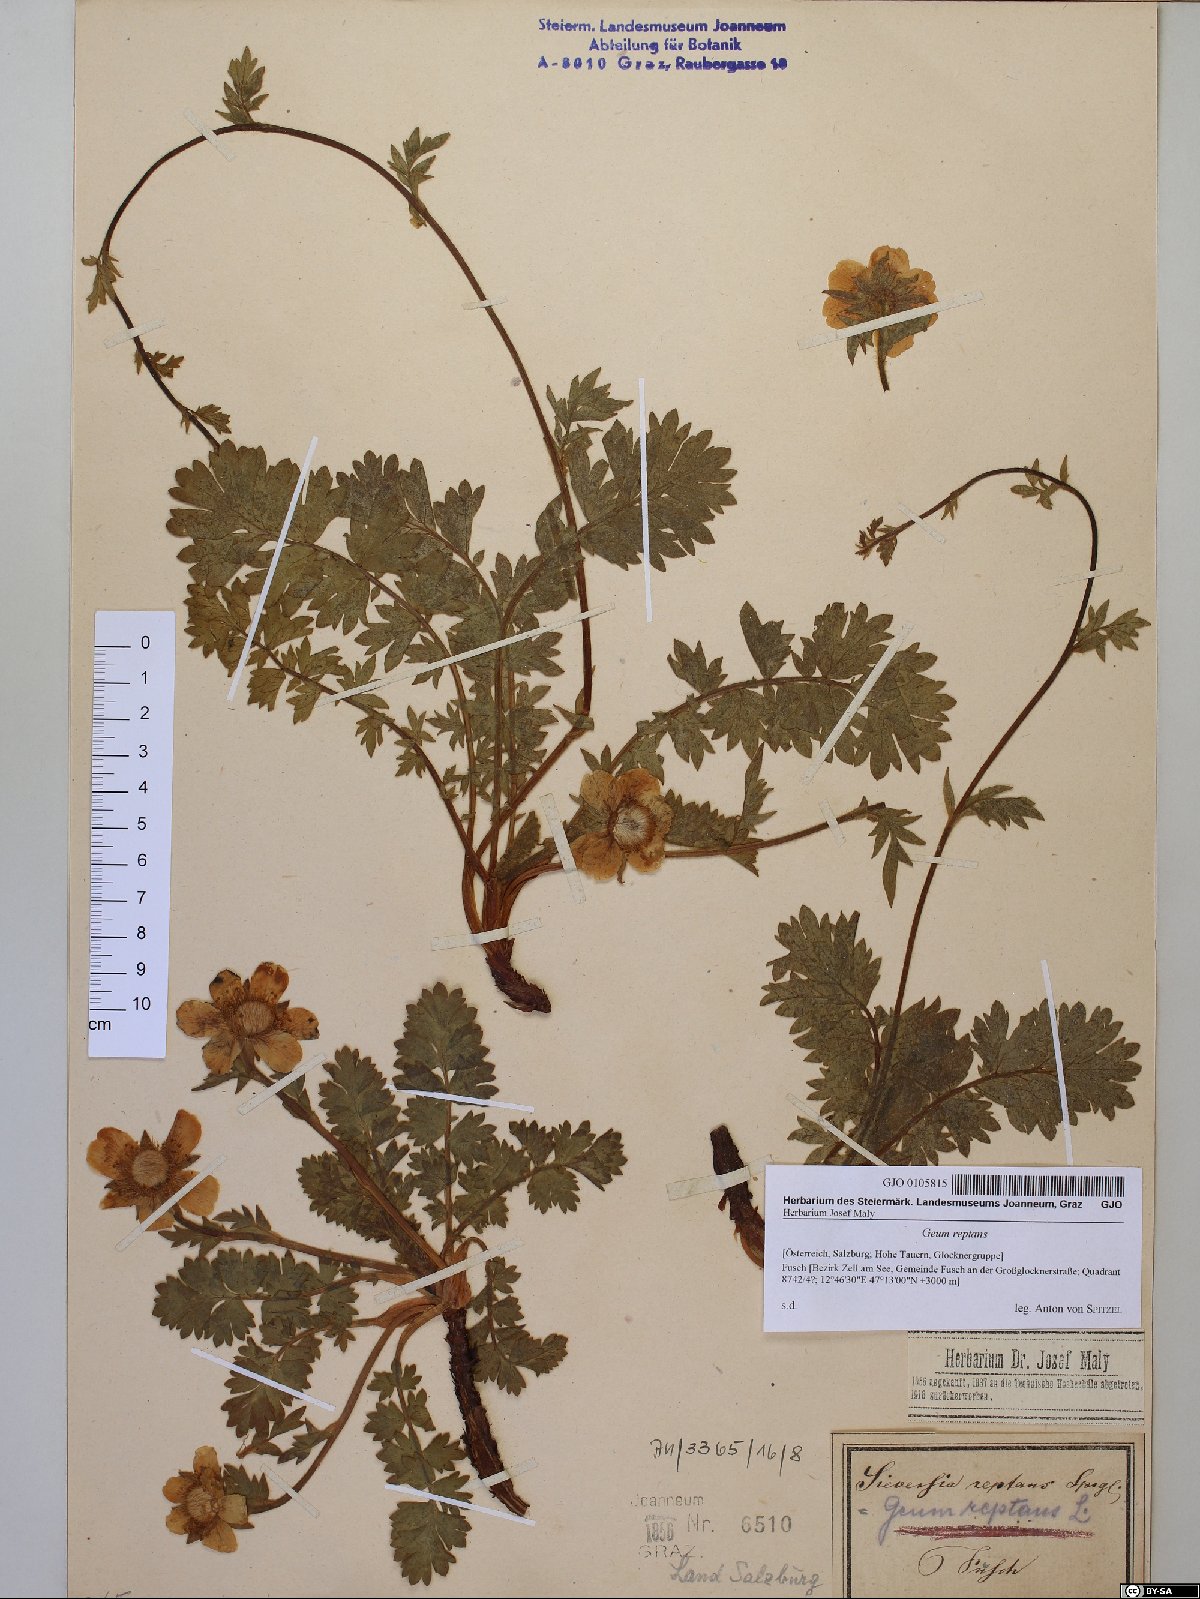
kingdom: Plantae
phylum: Tracheophyta
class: Magnoliopsida
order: Rosales
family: Rosaceae
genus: Geum
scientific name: Geum reptans
